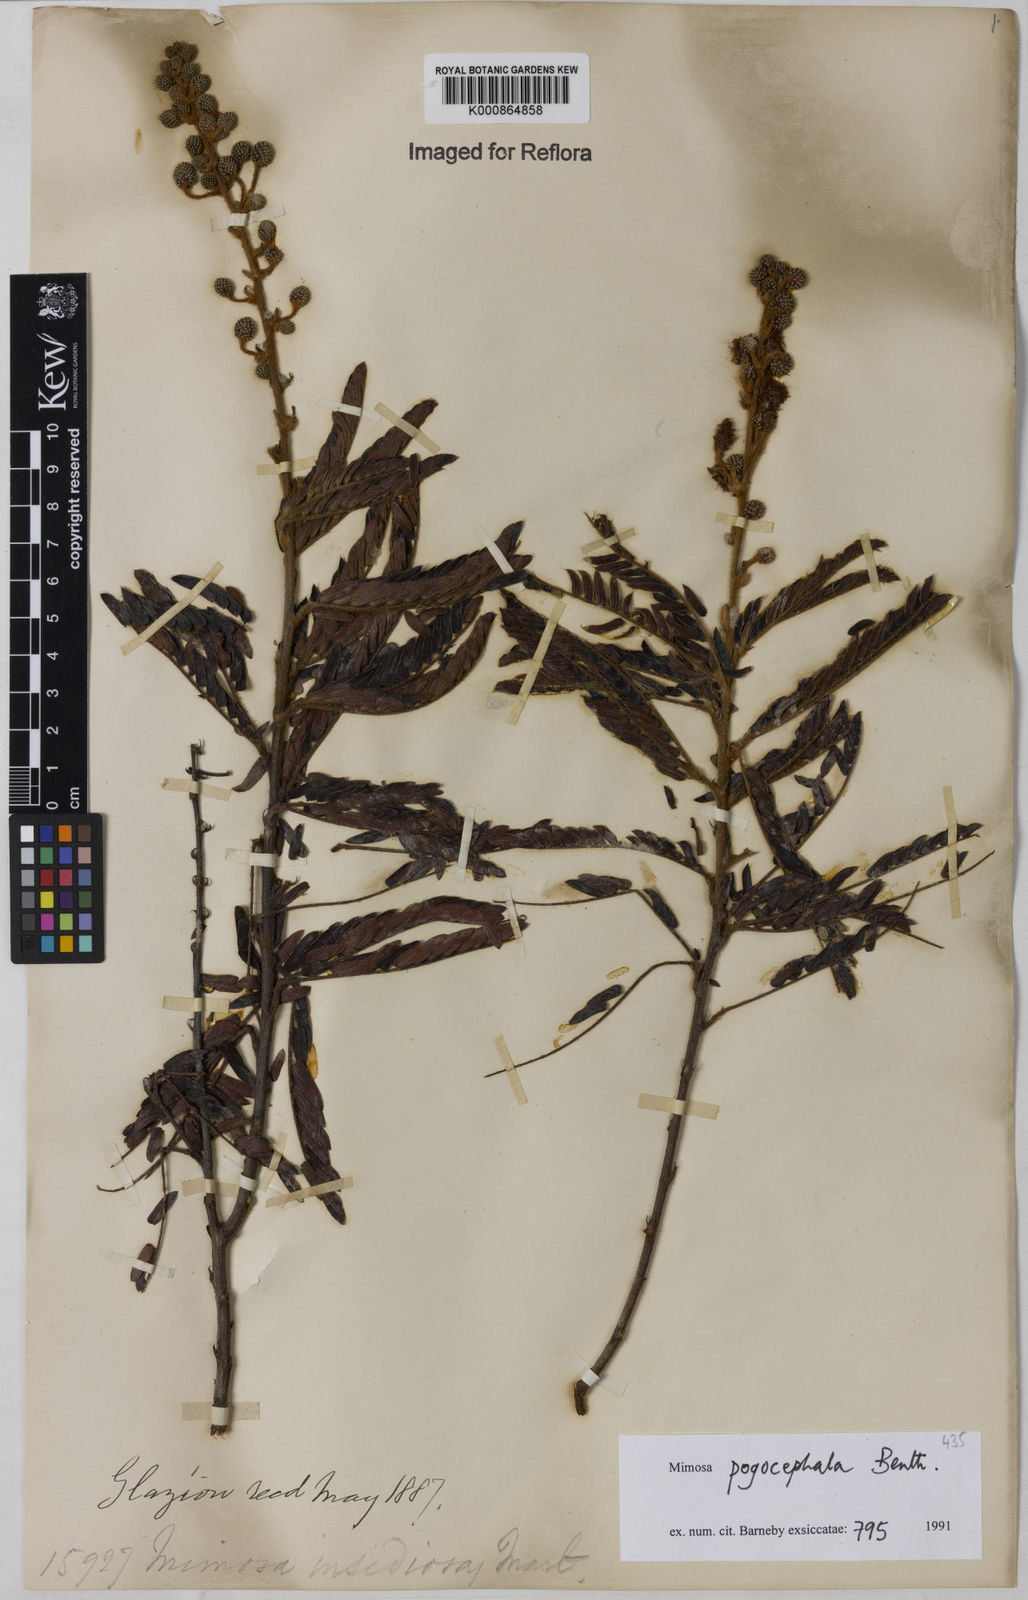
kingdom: Plantae
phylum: Tracheophyta
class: Magnoliopsida
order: Fabales
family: Fabaceae
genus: Mimosa
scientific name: Mimosa pogocephala
